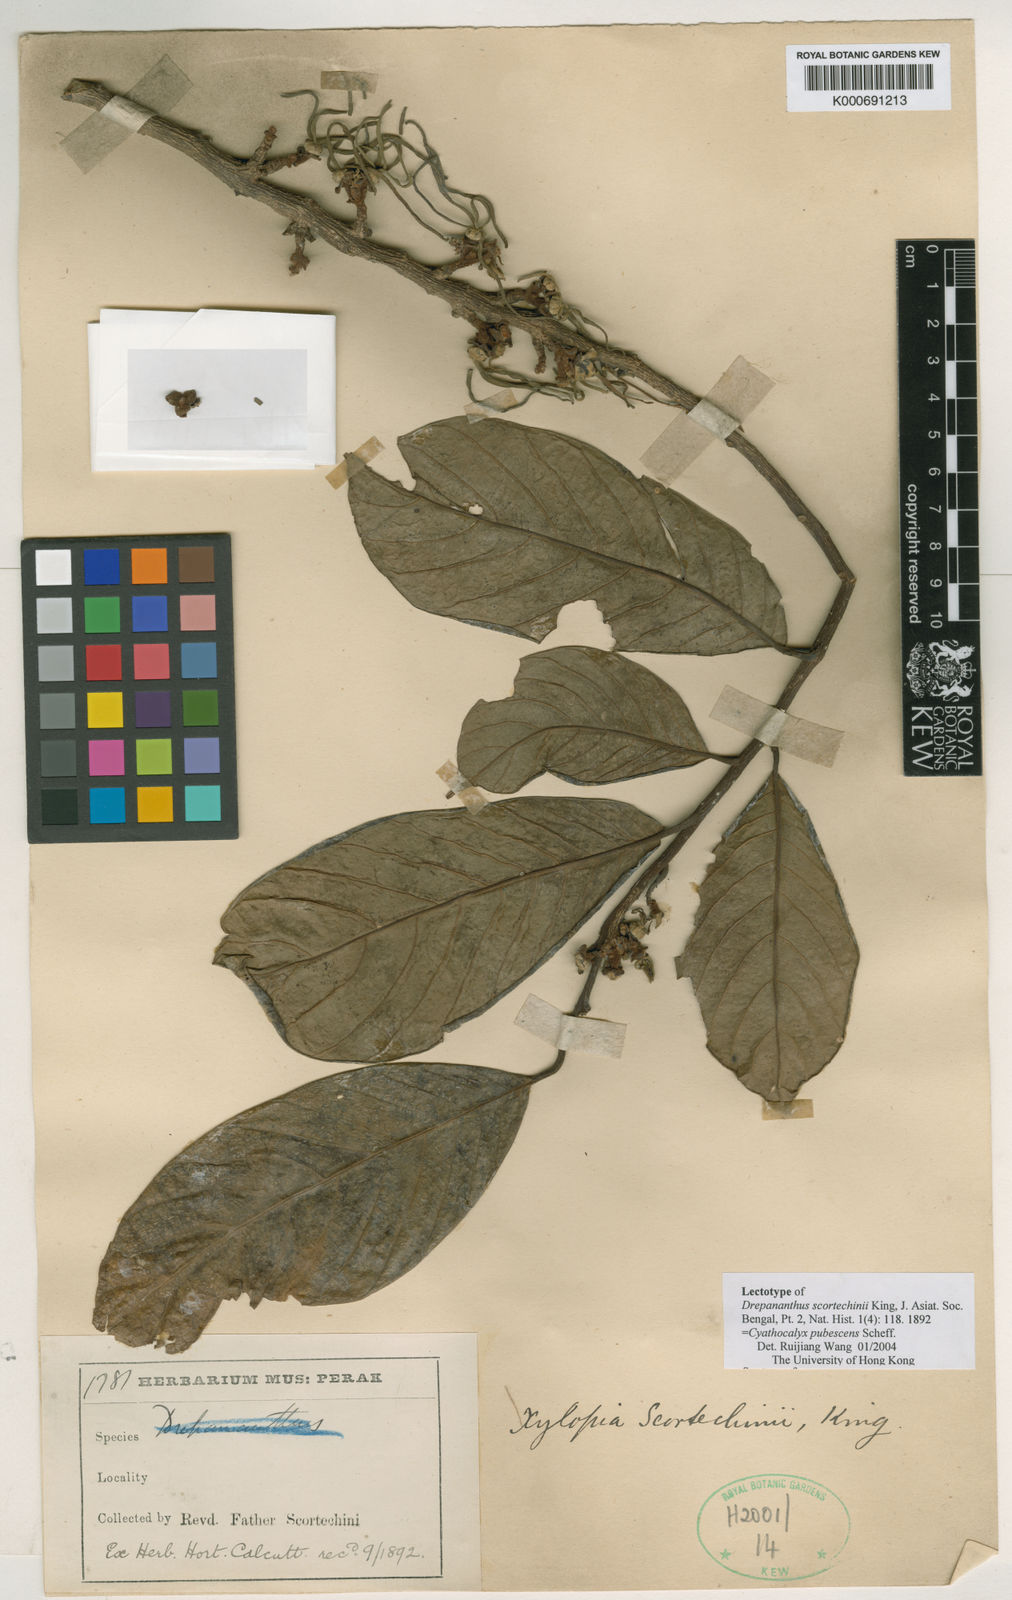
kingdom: Plantae
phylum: Tracheophyta
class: Magnoliopsida
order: Magnoliales
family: Annonaceae
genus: Drepananthus
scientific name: Drepananthus pubescens
